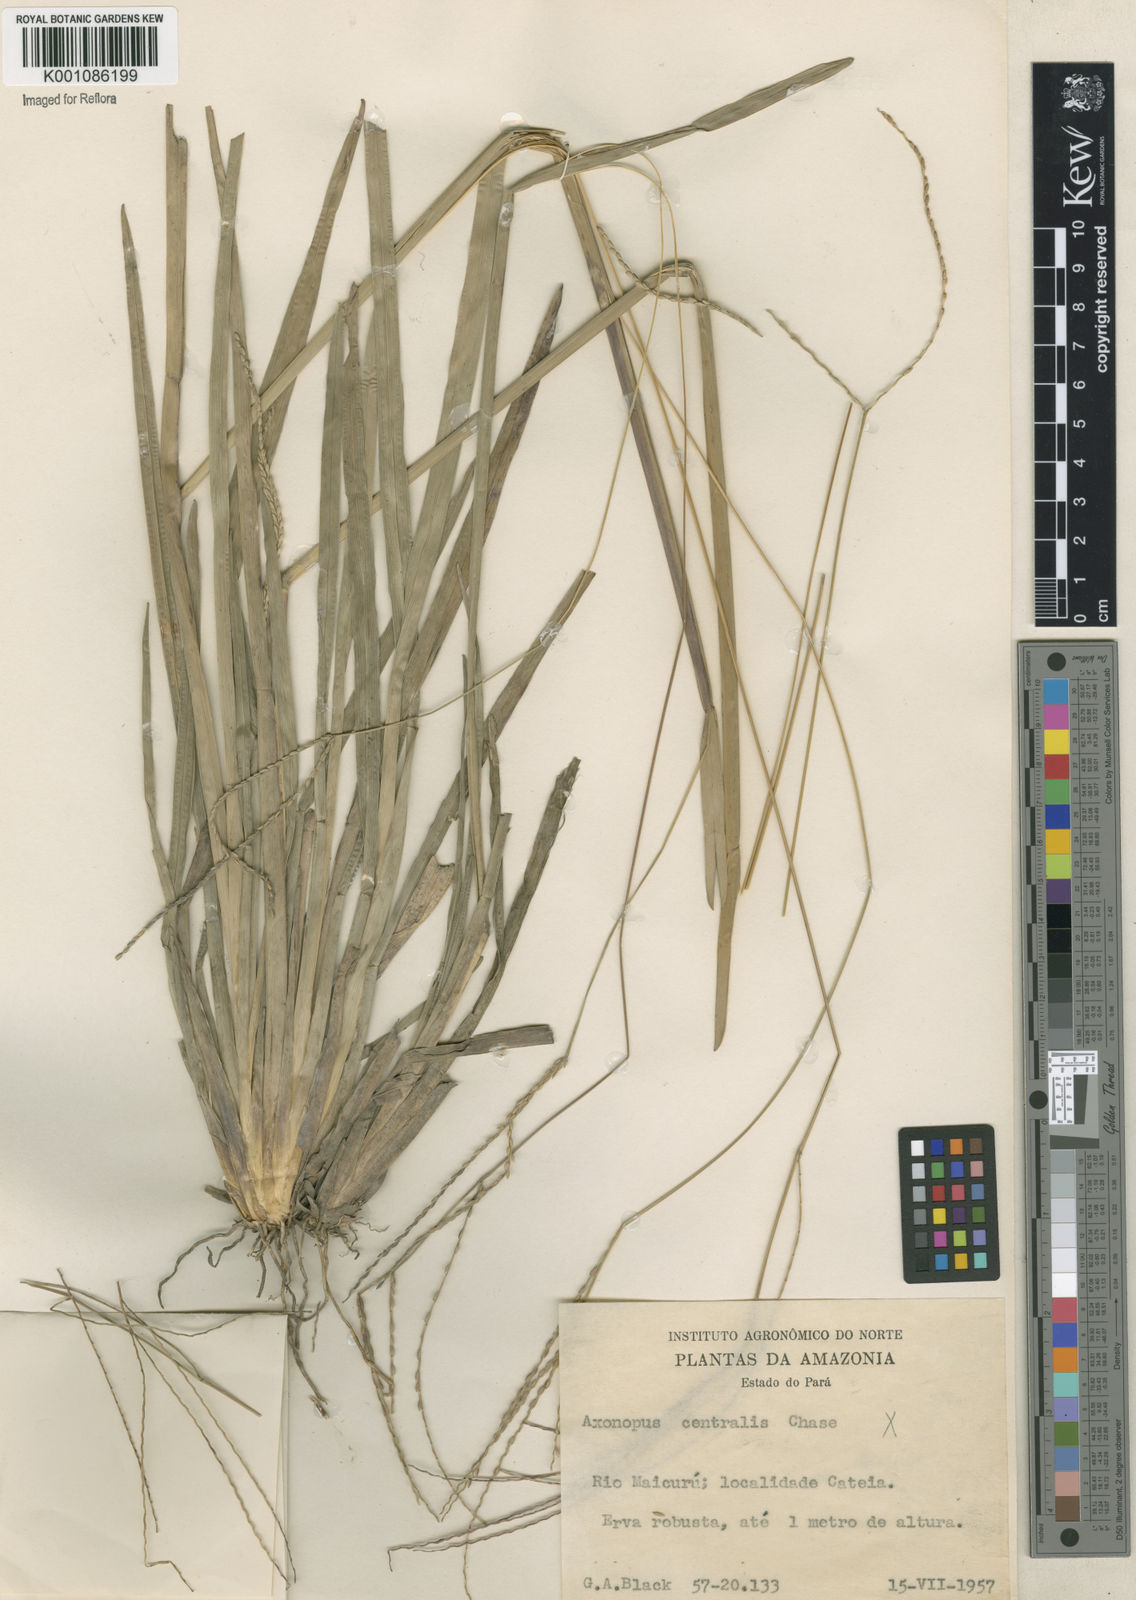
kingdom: Plantae
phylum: Tracheophyta
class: Liliopsida
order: Poales
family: Poaceae
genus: Axonopus
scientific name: Axonopus
